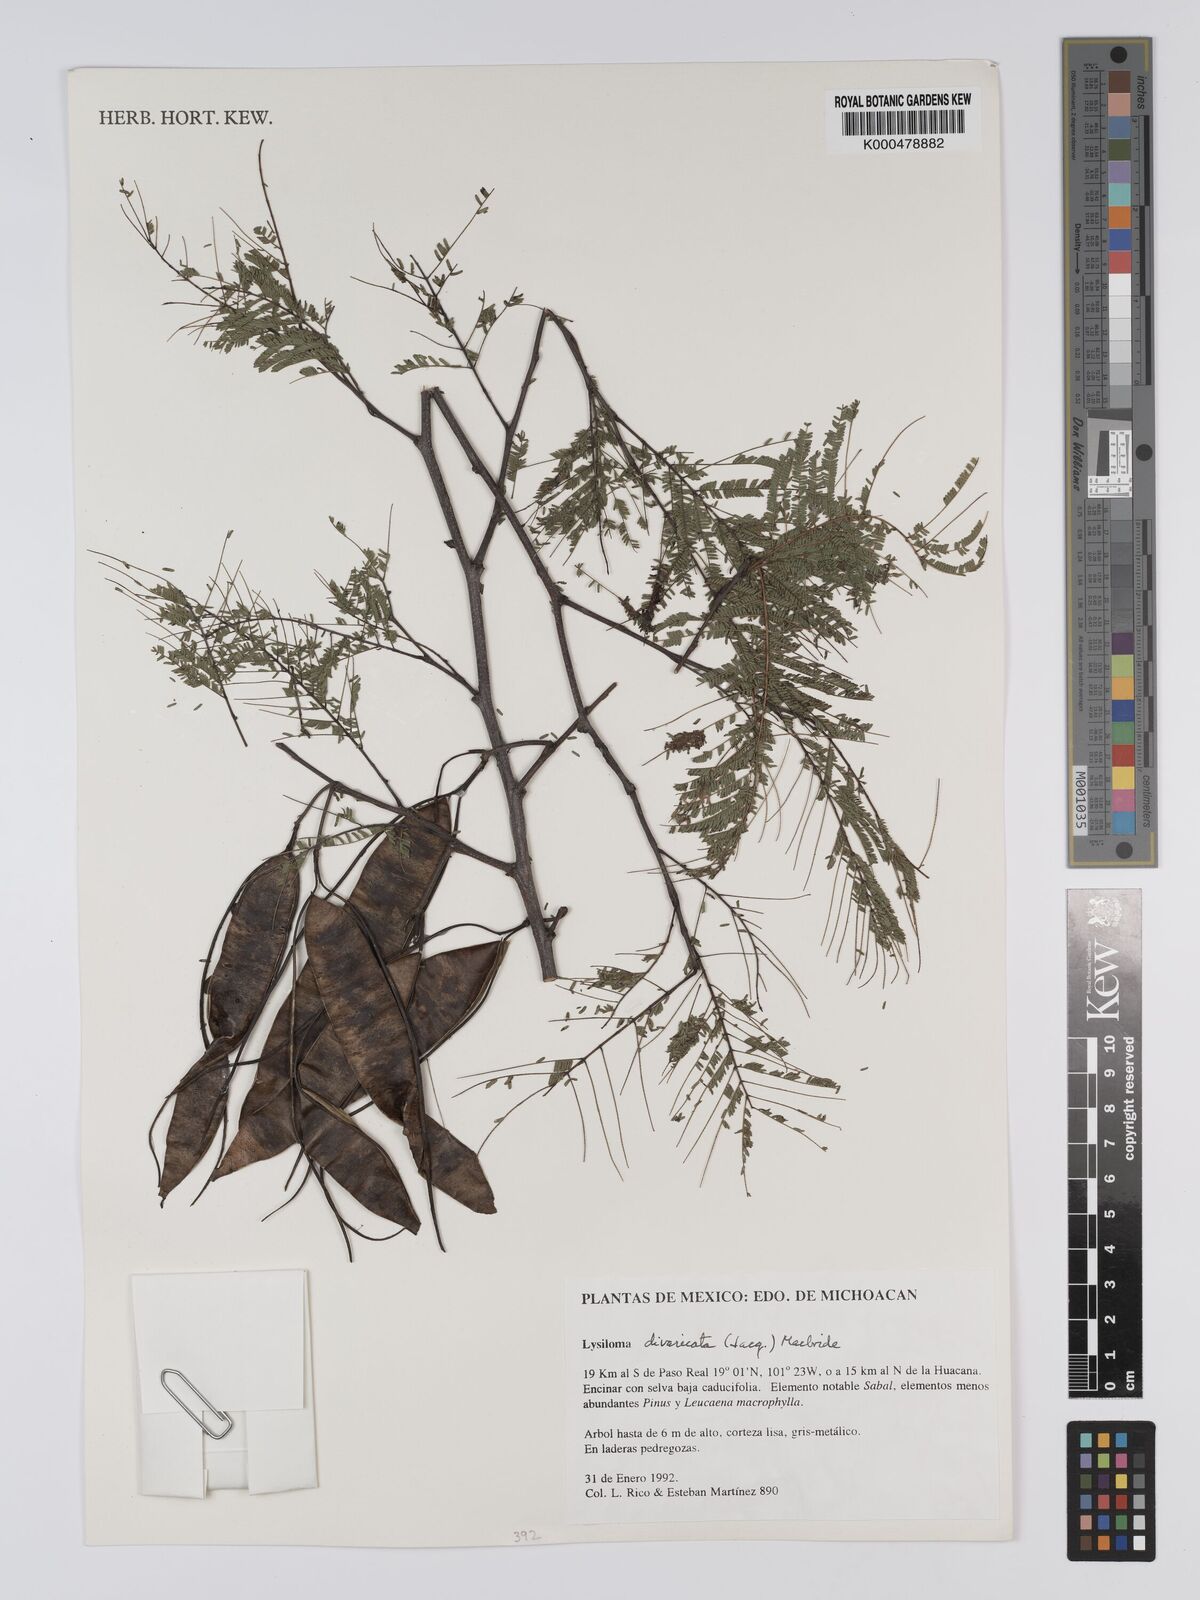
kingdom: Plantae
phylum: Tracheophyta
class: Magnoliopsida
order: Fabales
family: Fabaceae
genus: Lysiloma
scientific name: Lysiloma divaricatum
